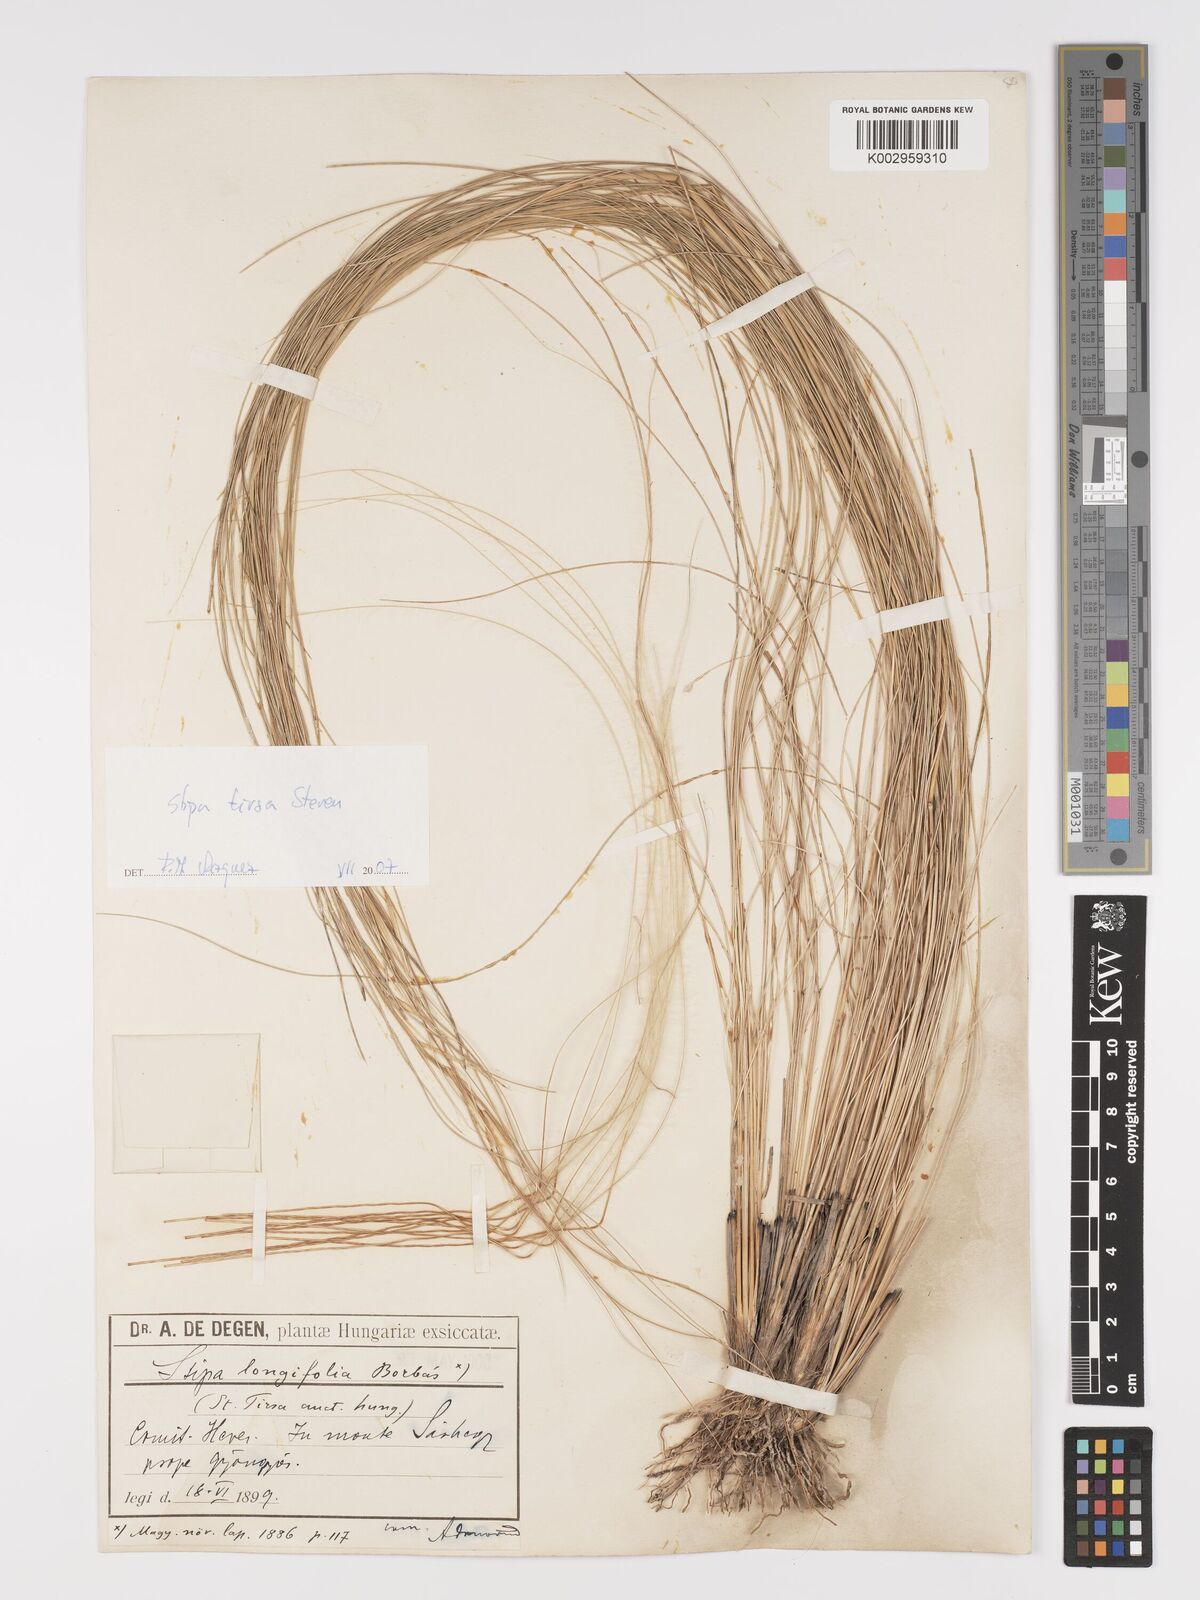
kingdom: Plantae
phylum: Tracheophyta
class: Liliopsida
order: Poales
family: Poaceae
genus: Stipa
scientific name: Stipa tirsa
